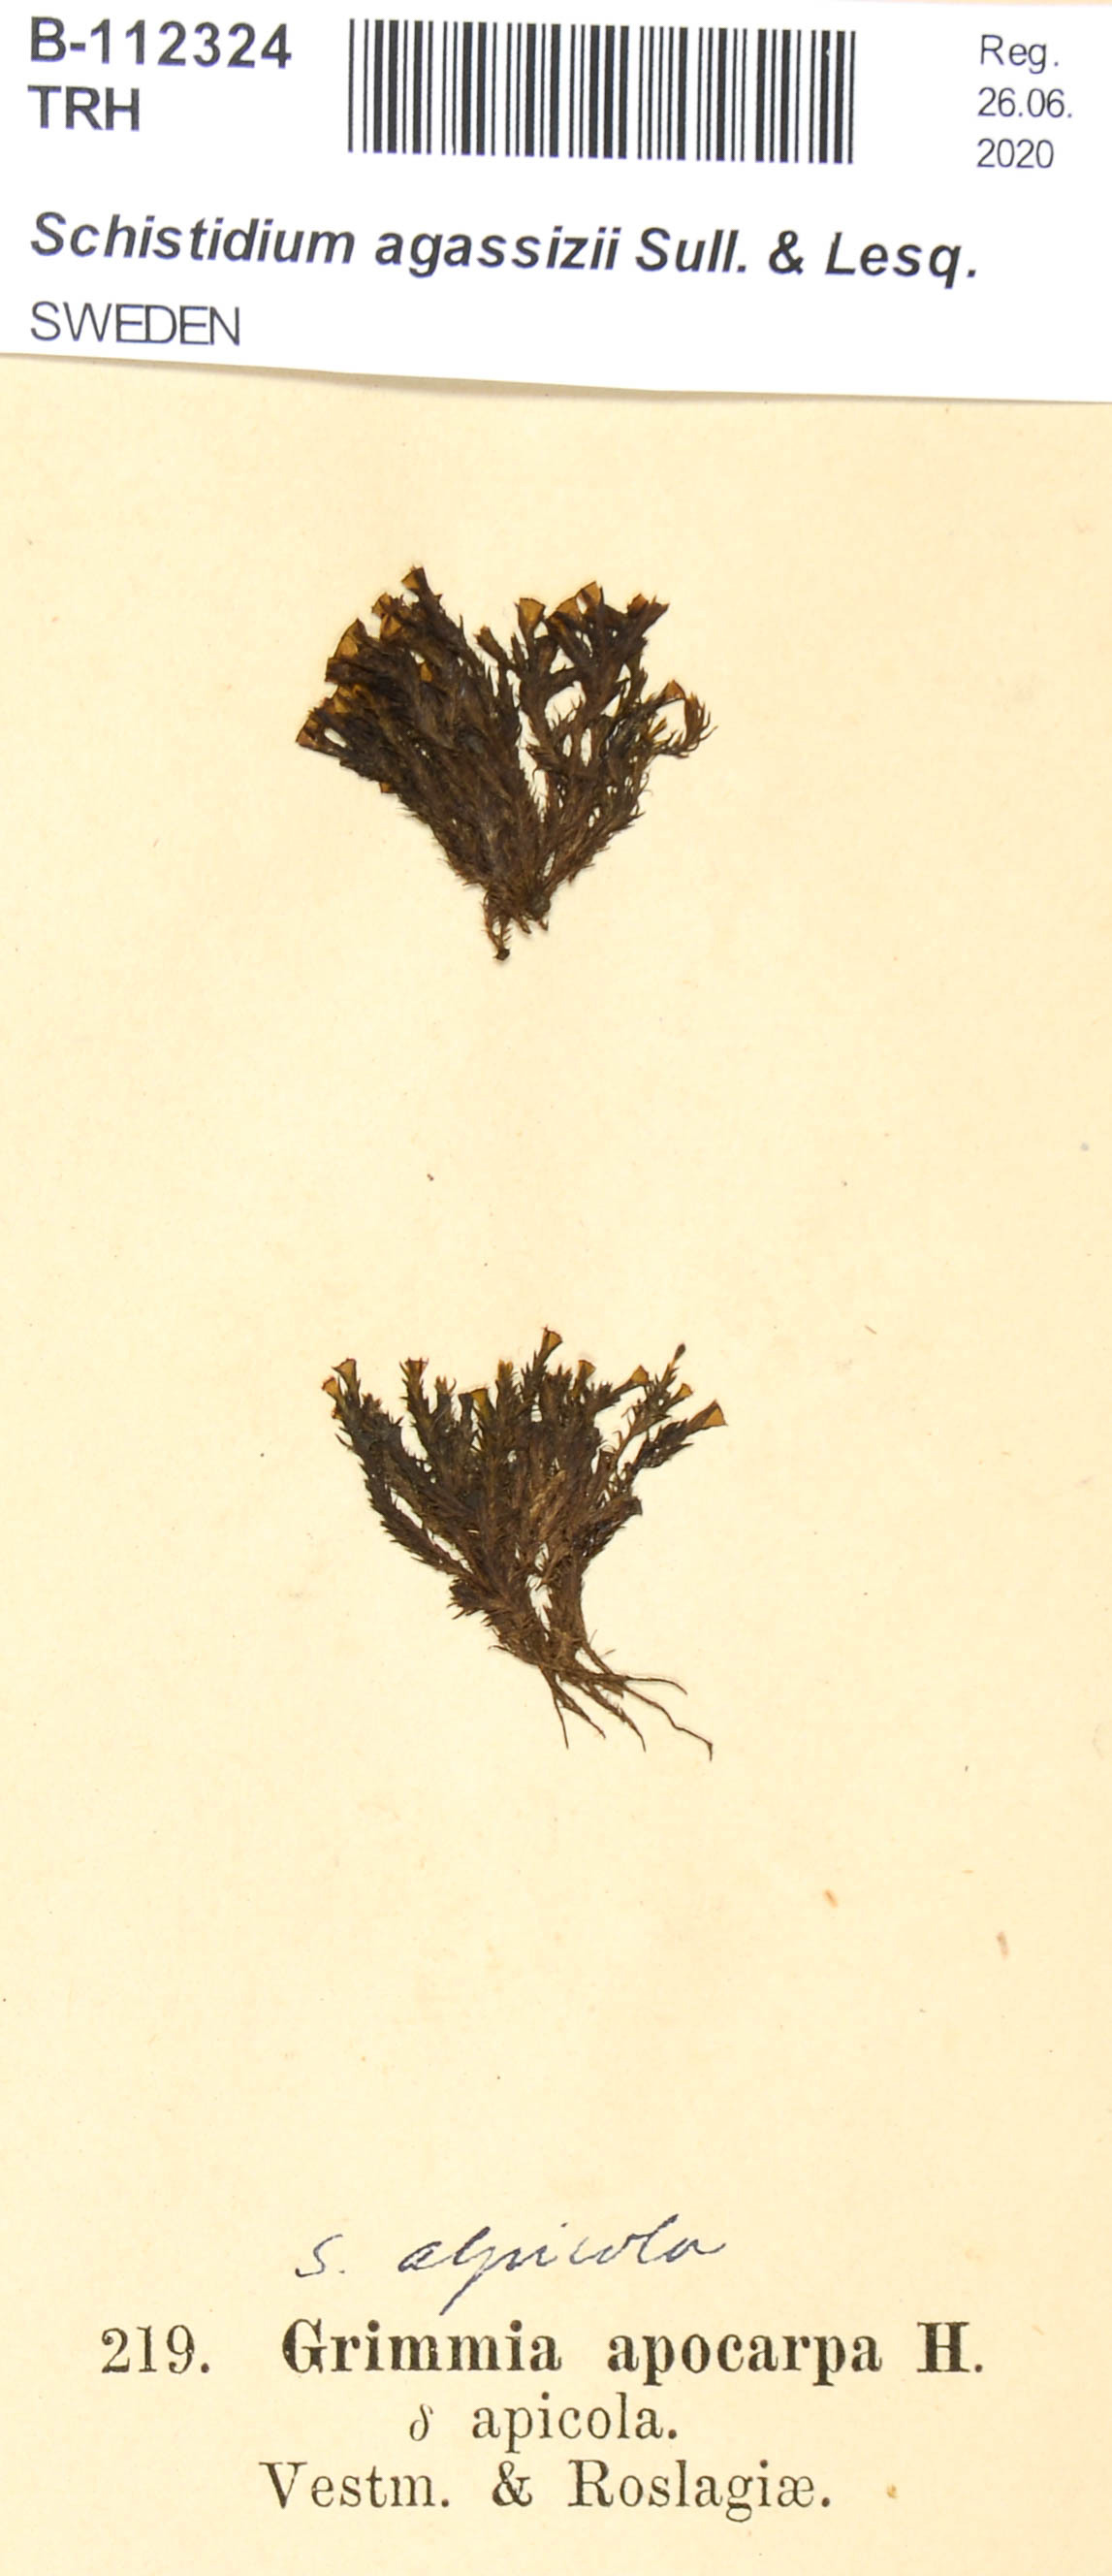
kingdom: Plantae
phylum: Bryophyta
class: Bryopsida
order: Grimmiales
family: Grimmiaceae
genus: Schistidium
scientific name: Schistidium agassizii
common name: Agassiz's bloom moss
